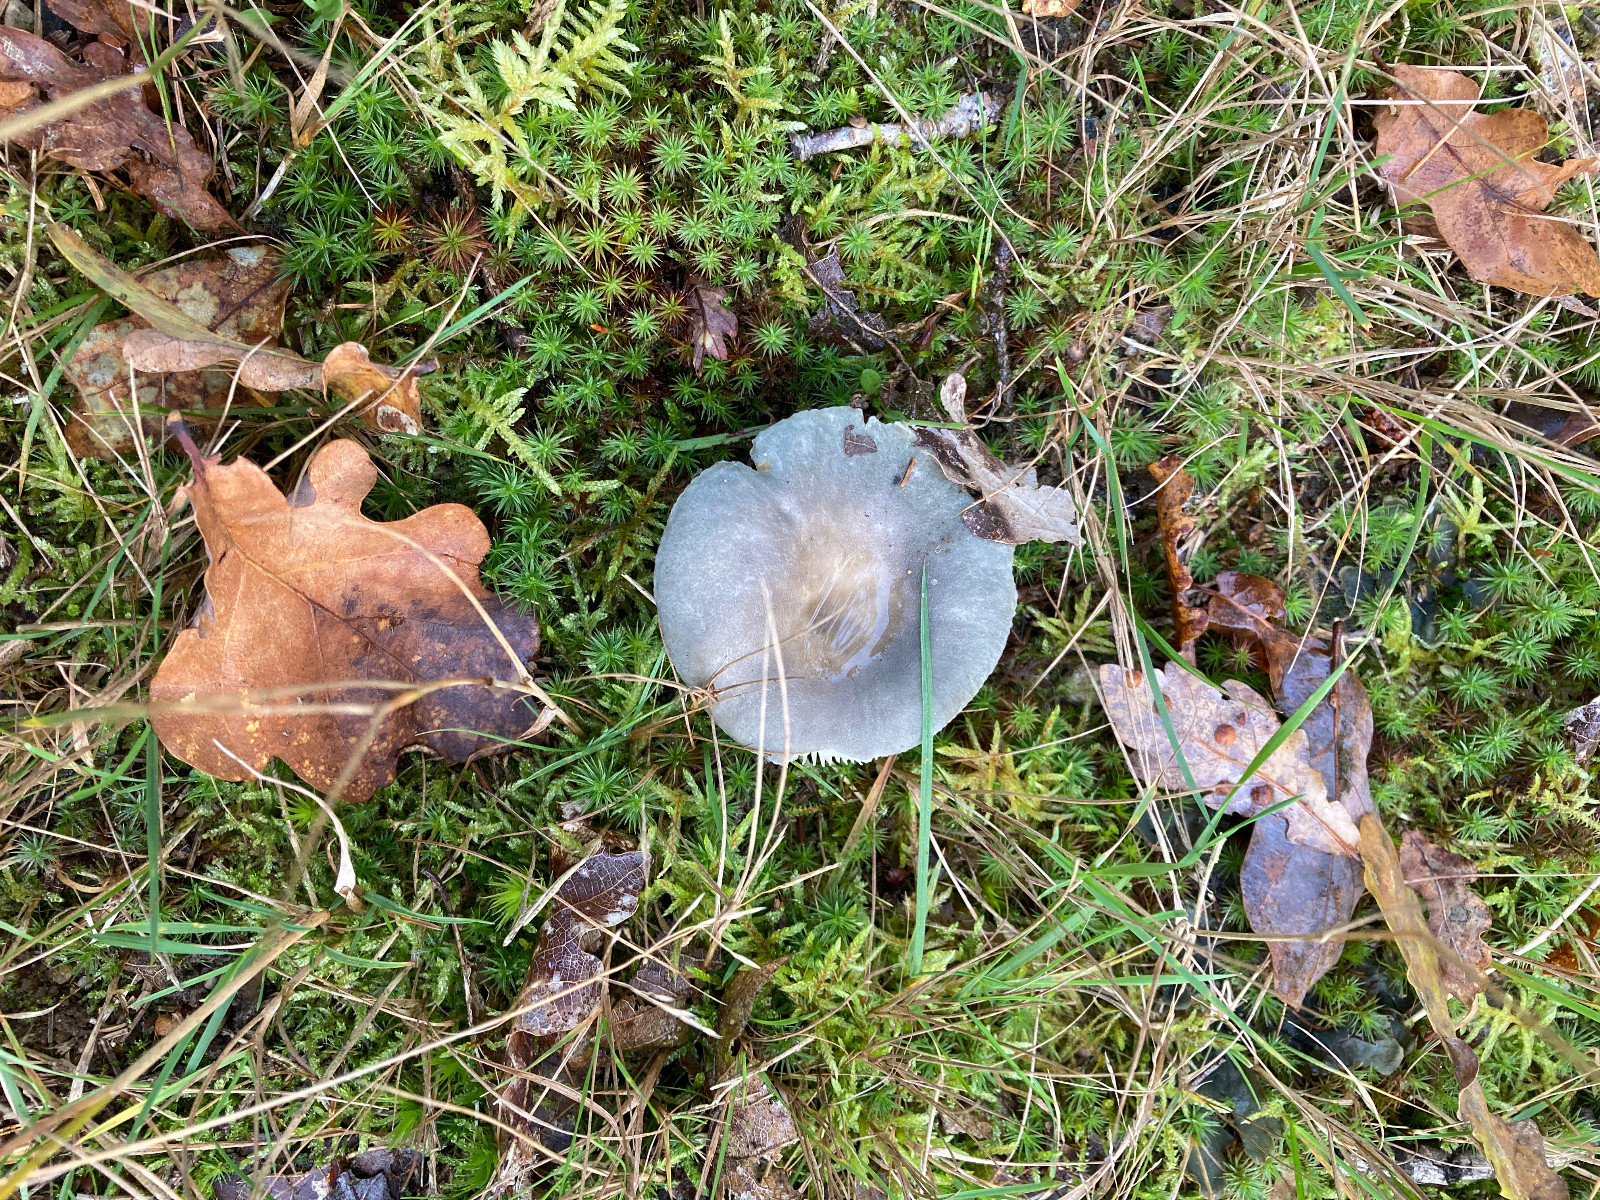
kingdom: Fungi
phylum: Basidiomycota
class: Agaricomycetes
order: Russulales
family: Russulaceae
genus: Russula
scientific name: Russula
